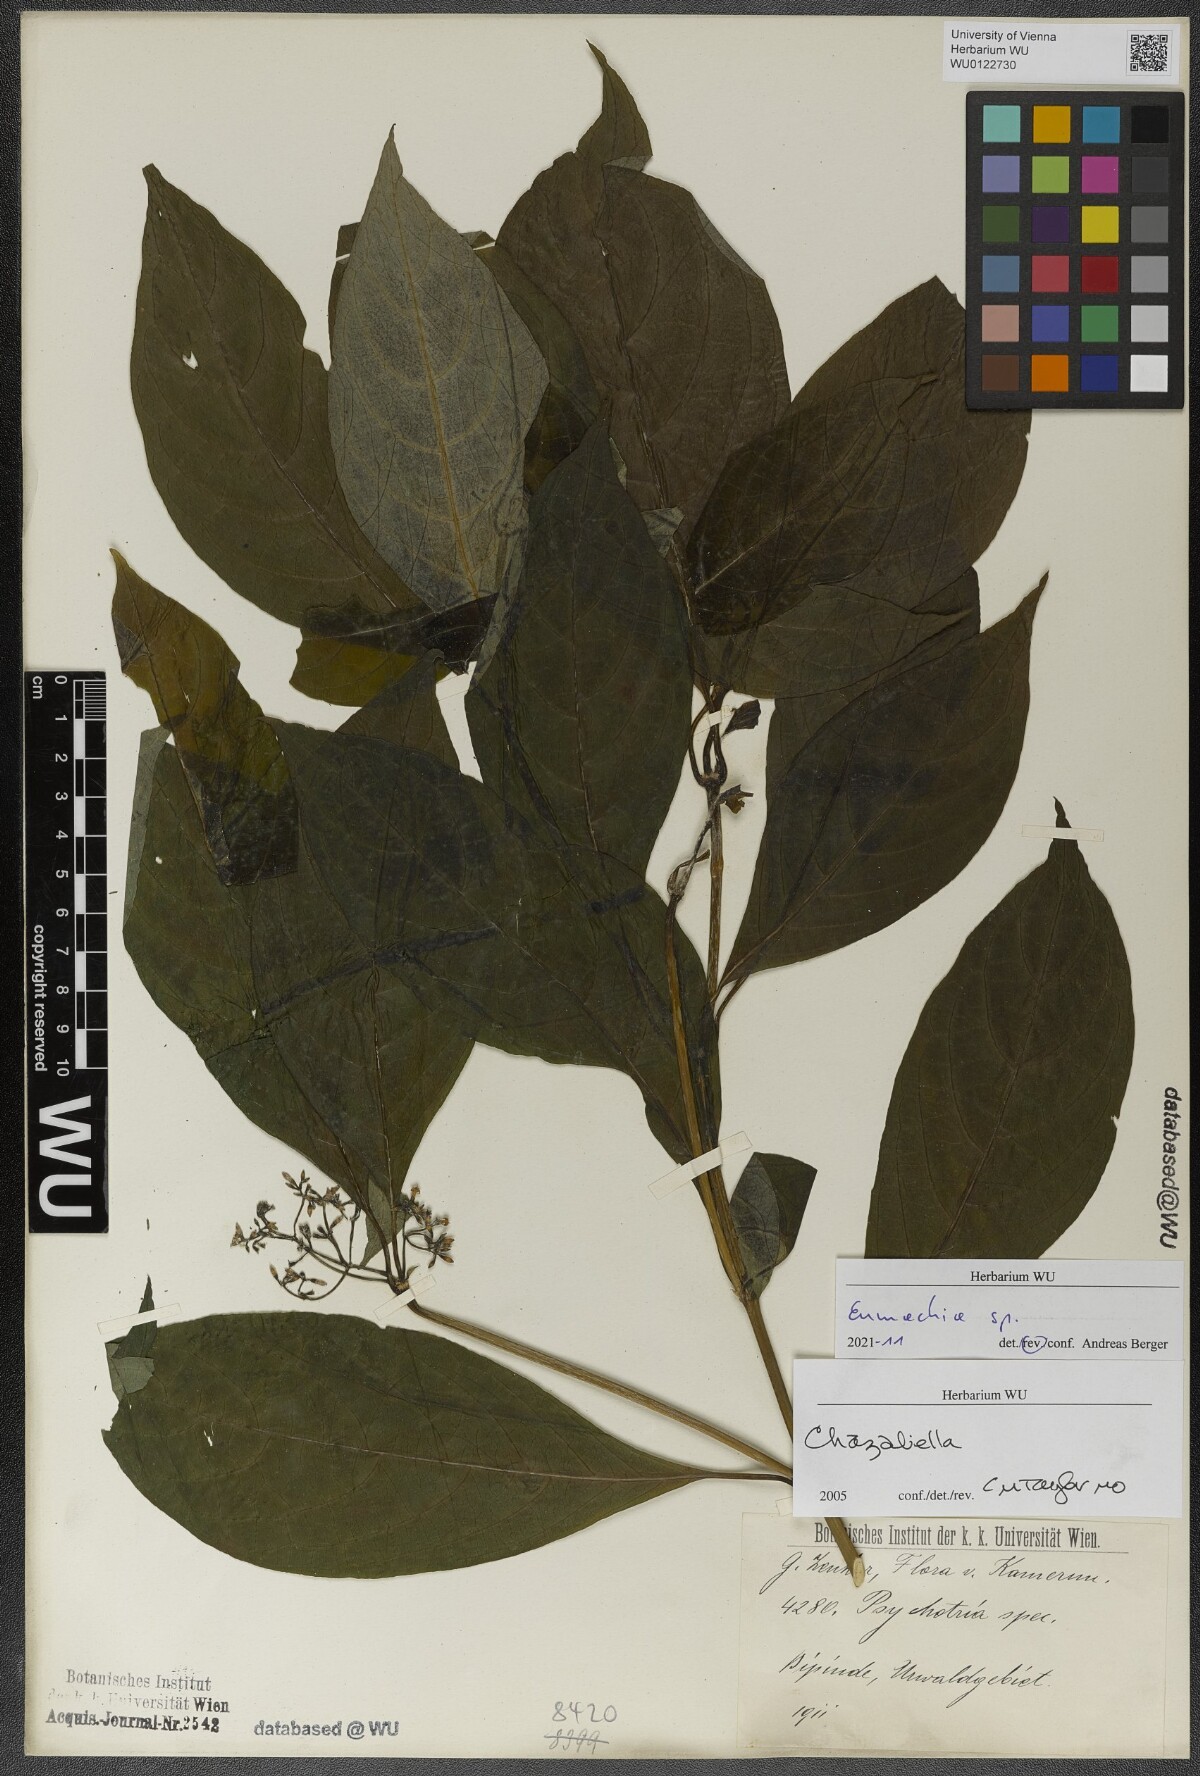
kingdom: Plantae
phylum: Tracheophyta
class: Magnoliopsida
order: Gentianales
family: Rubiaceae
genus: Eumachia
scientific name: Eumachia
